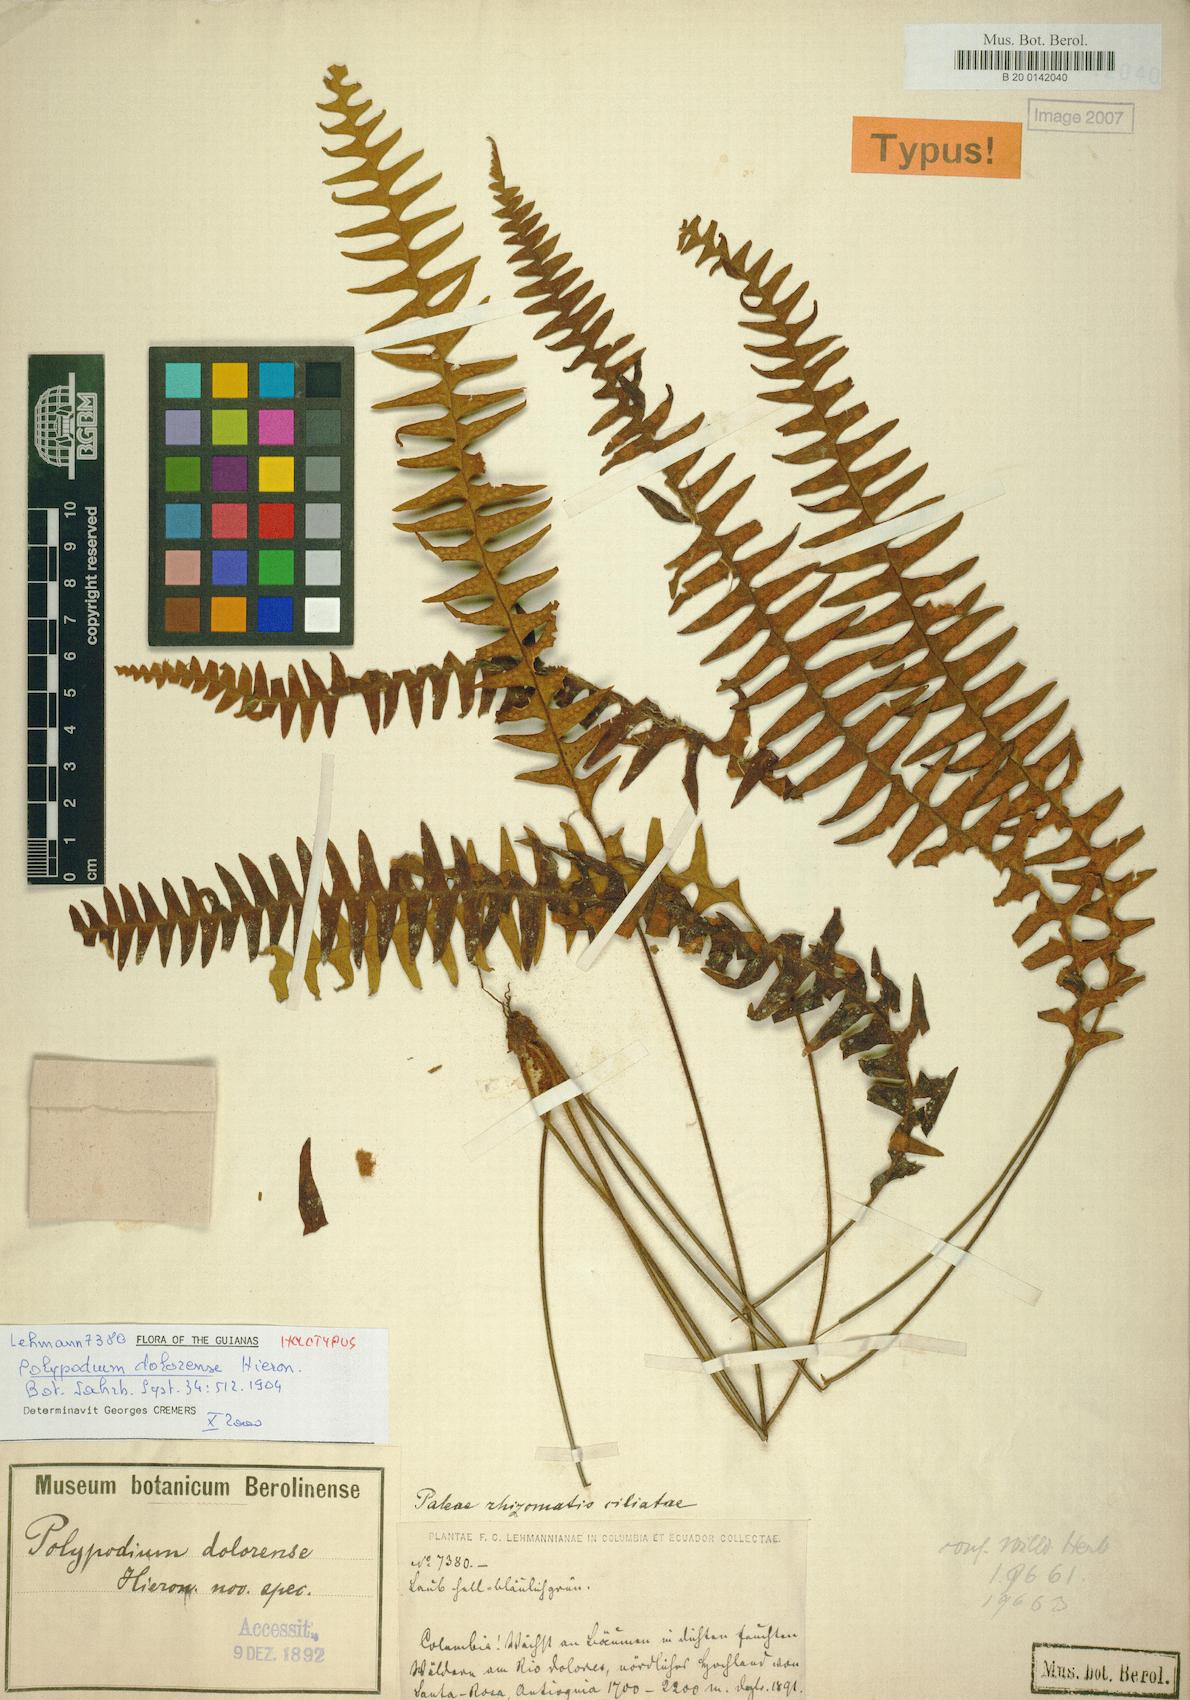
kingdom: Plantae
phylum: Tracheophyta
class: Polypodiopsida
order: Polypodiales
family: Polypodiaceae
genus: Terpsichore
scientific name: Terpsichore dolorensis
